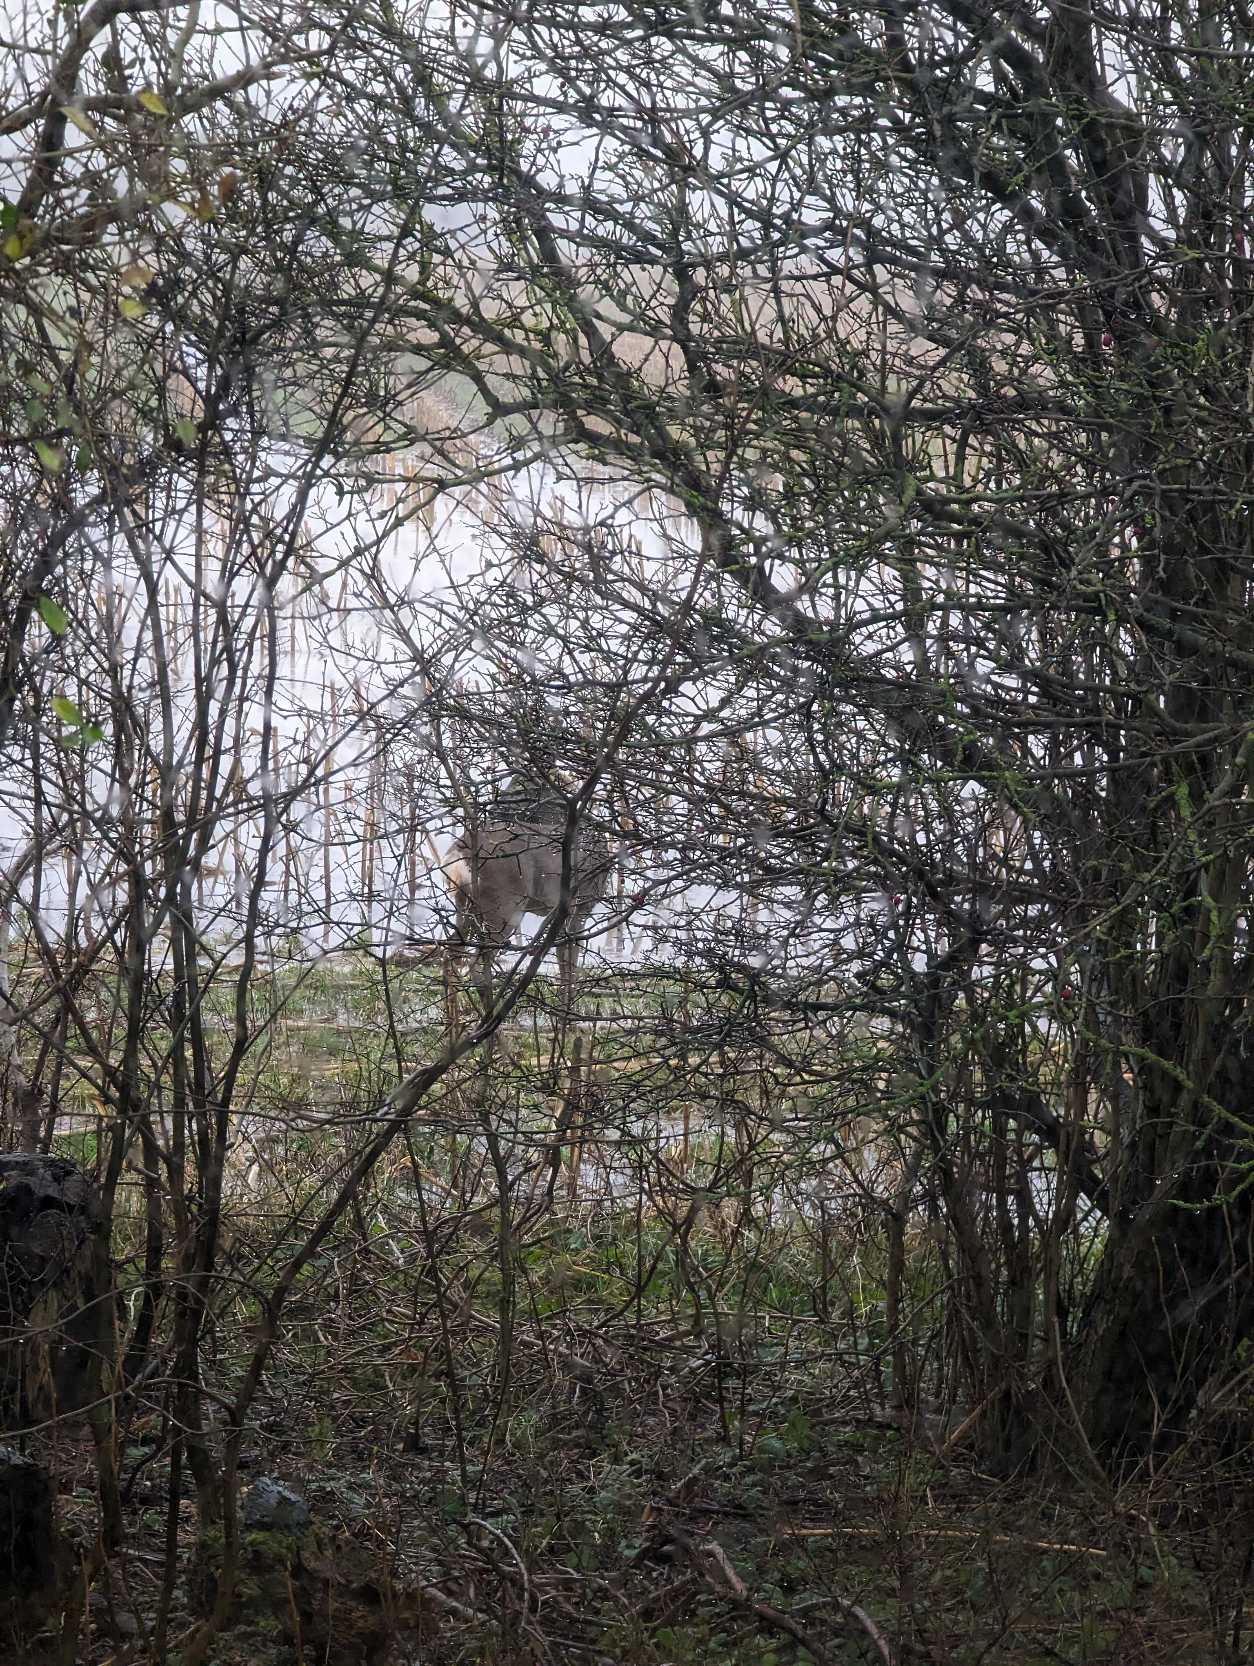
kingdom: Animalia
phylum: Chordata
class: Mammalia
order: Artiodactyla
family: Cervidae
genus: Capreolus
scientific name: Capreolus capreolus
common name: Rådyr
